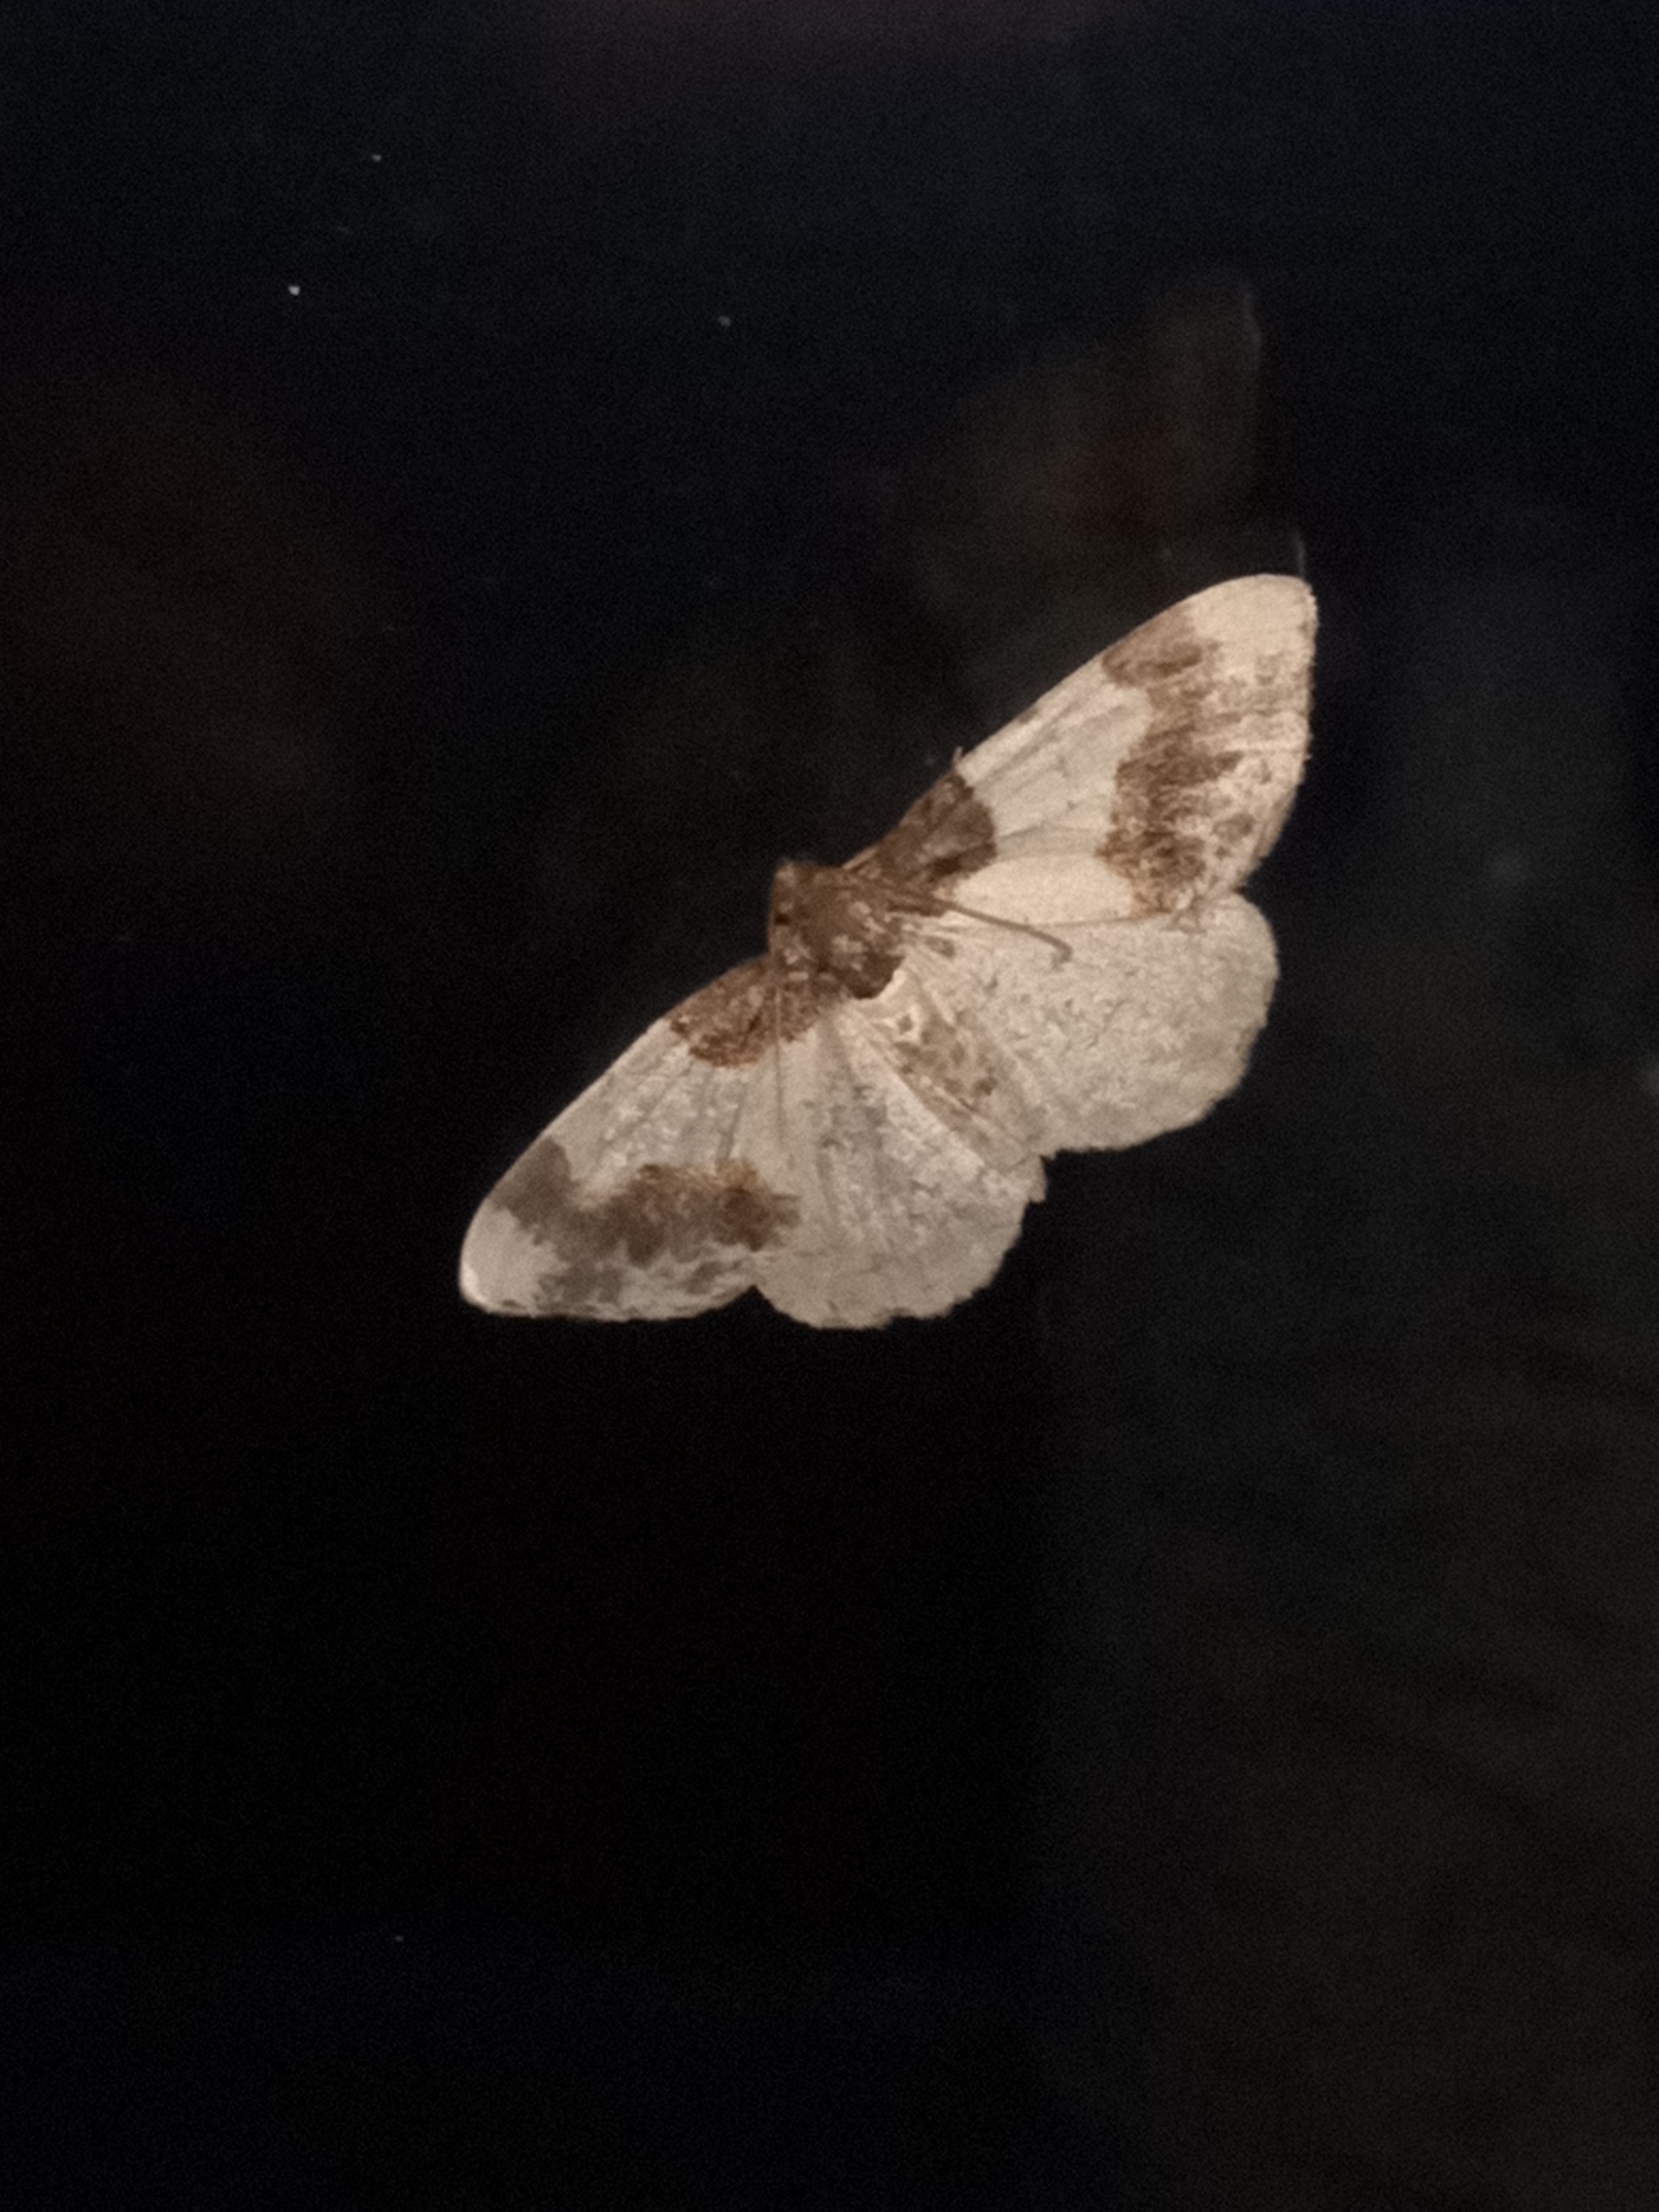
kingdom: Animalia
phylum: Arthropoda
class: Insecta
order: Lepidoptera
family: Geometridae
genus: Ligdia
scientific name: Ligdia adustata
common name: Benvedmåler
